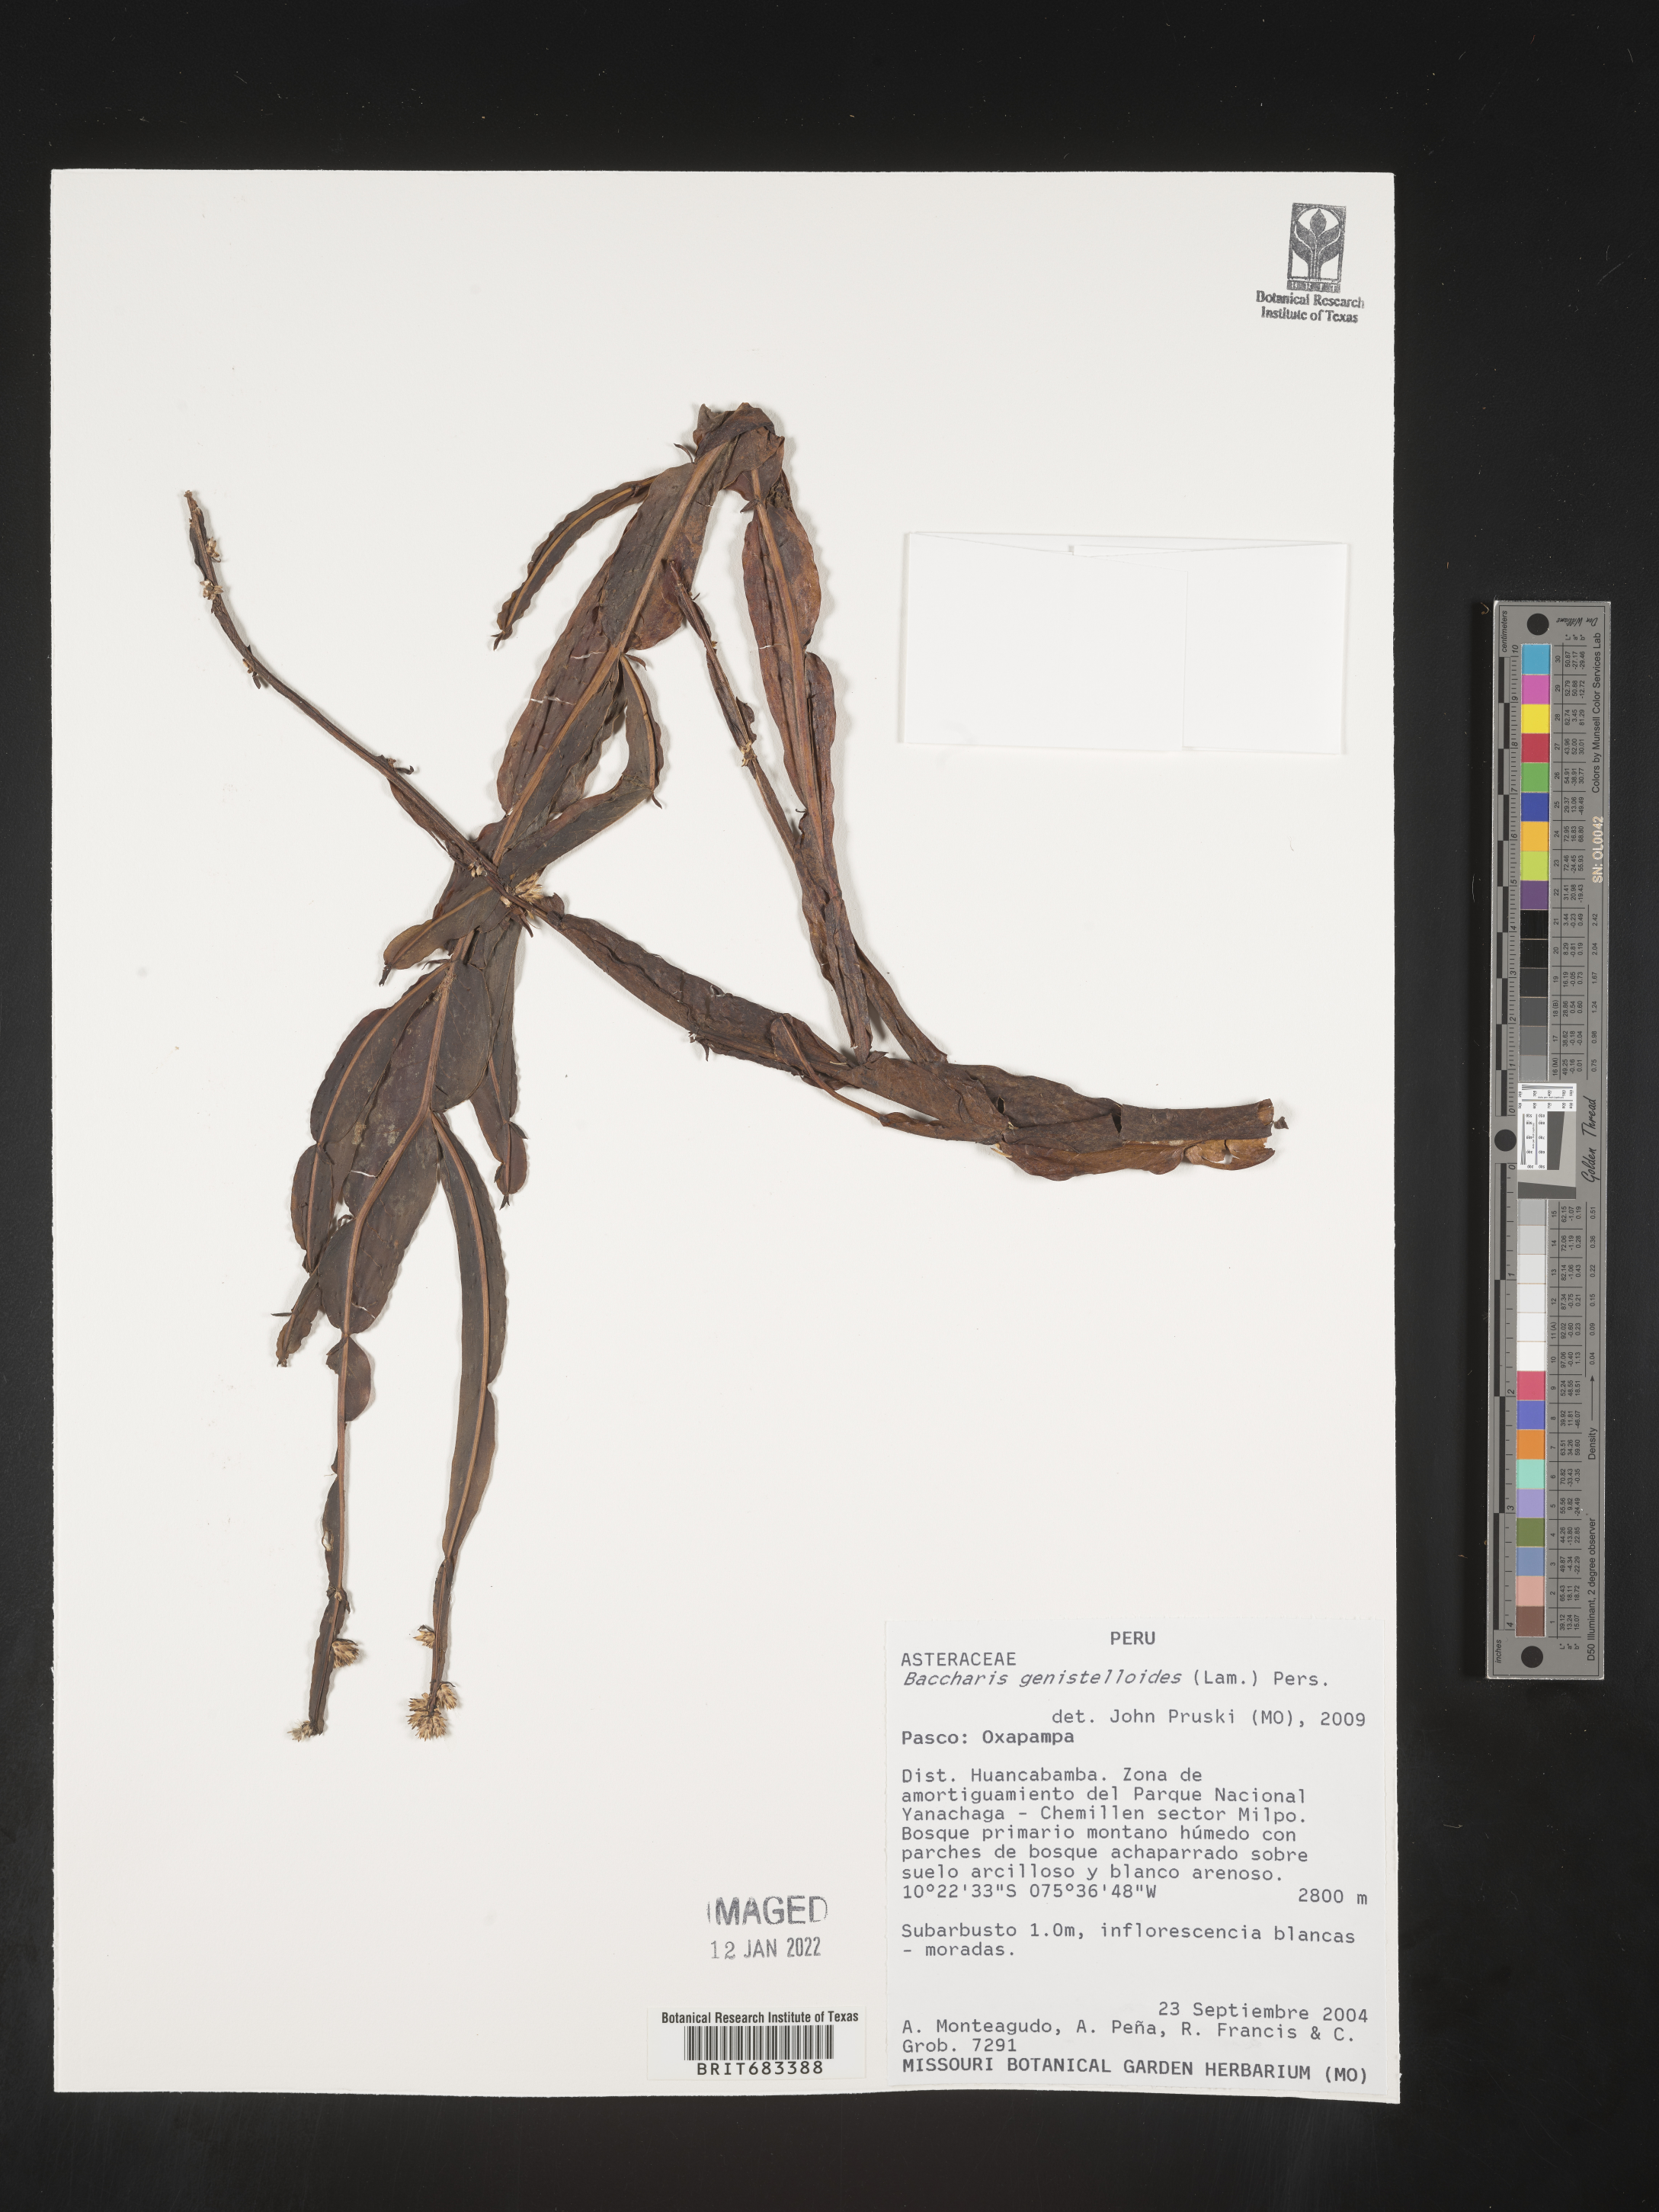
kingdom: Plantae
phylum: Tracheophyta
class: Magnoliopsida
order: Asterales
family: Asteraceae
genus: Baccharis
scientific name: Baccharis
